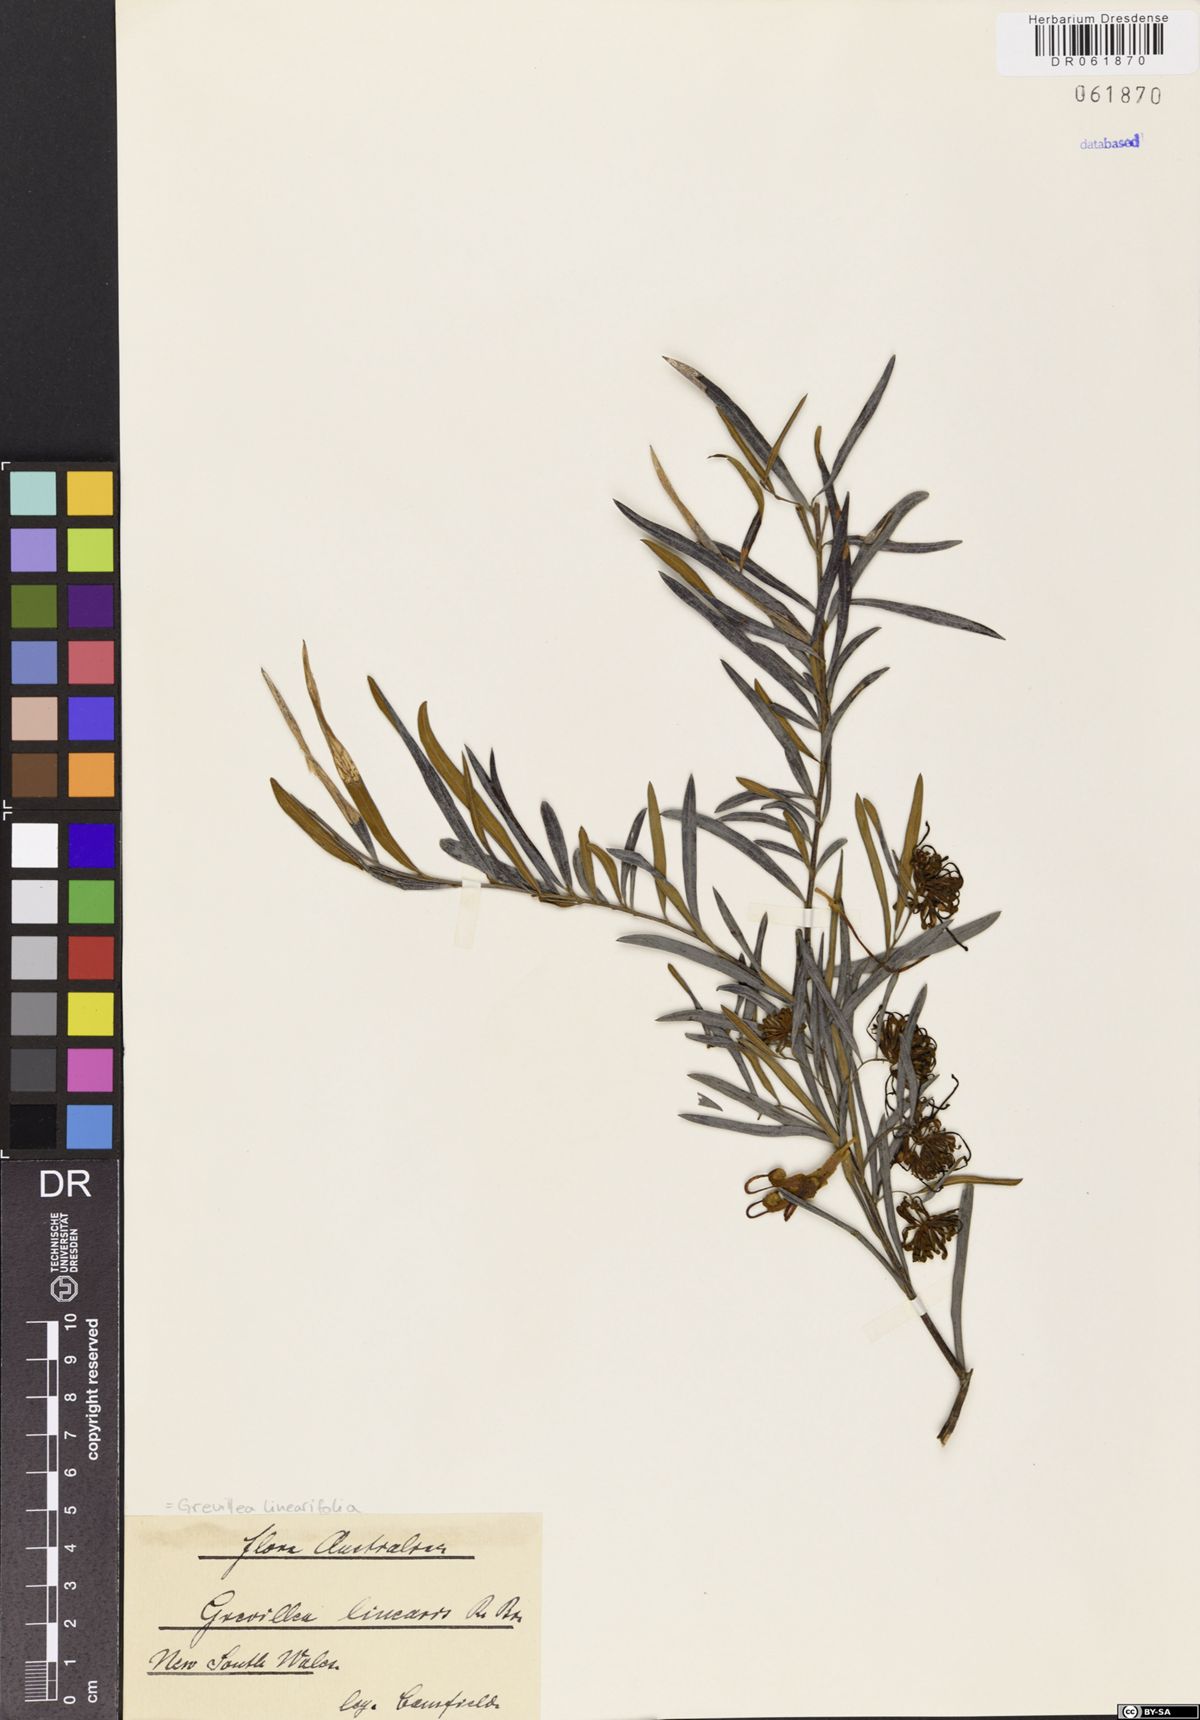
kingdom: Plantae
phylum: Tracheophyta
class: Magnoliopsida
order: Proteales
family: Proteaceae
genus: Grevillea
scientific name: Grevillea linearifolia
